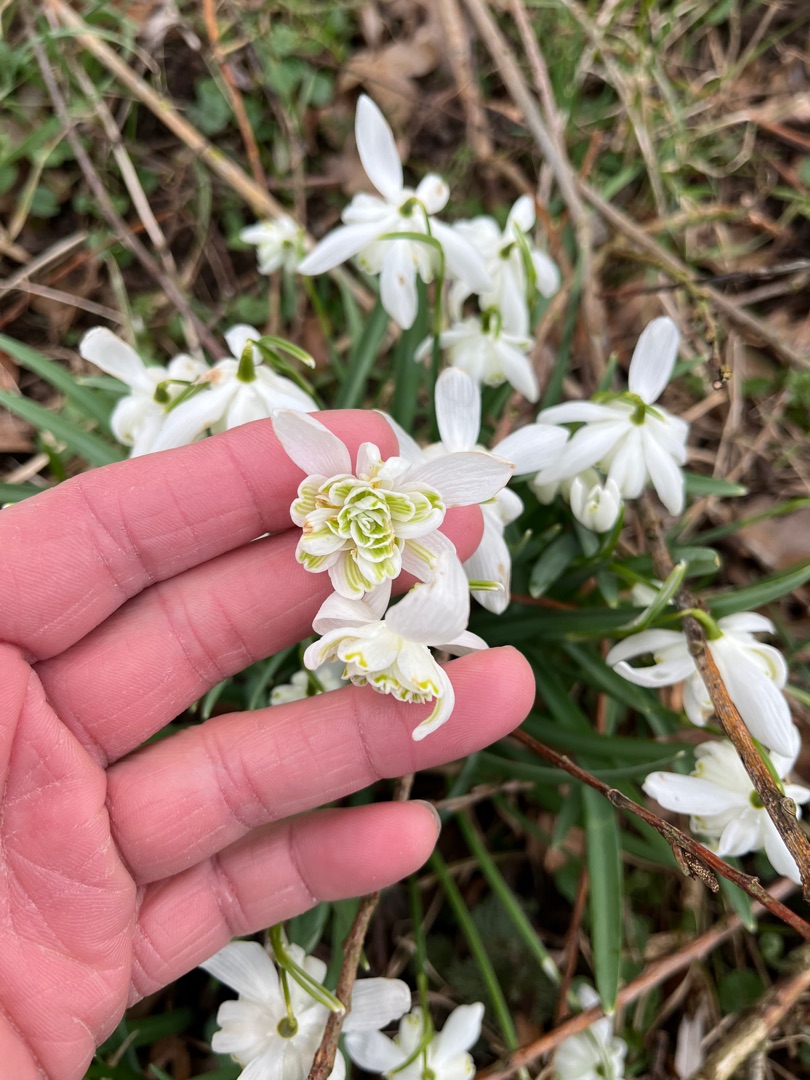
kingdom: Plantae
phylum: Tracheophyta
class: Liliopsida
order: Asparagales
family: Amaryllidaceae
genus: Galanthus
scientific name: Galanthus nivalis
